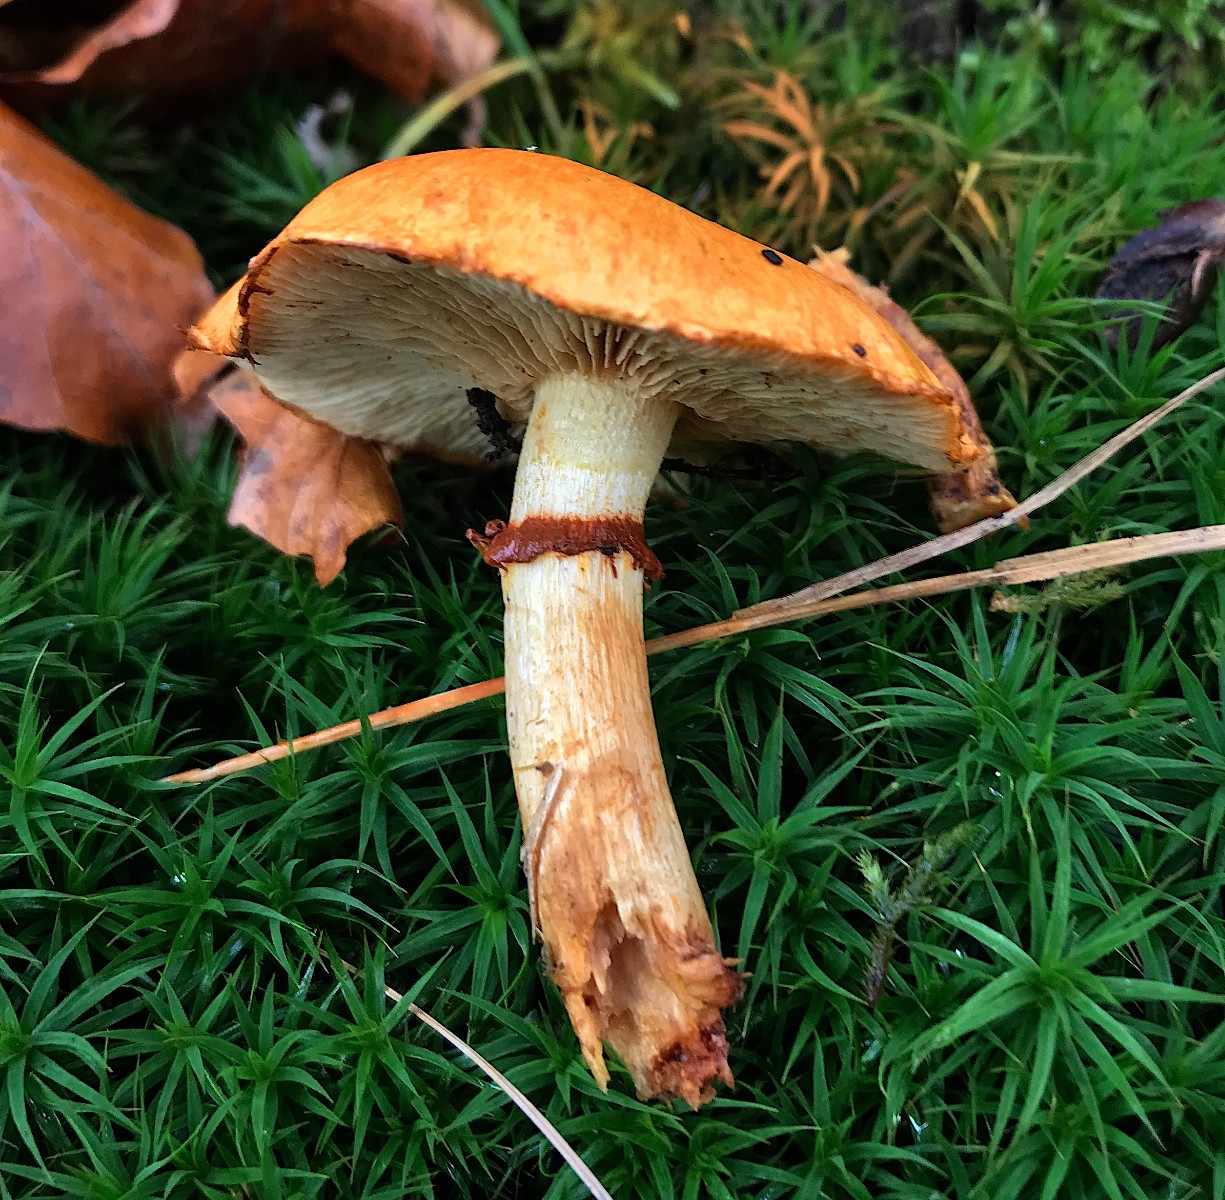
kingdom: Fungi
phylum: Basidiomycota
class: Agaricomycetes
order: Agaricales
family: Hymenogastraceae
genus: Gymnopilus
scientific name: Gymnopilus spectabilis
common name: fibret flammehat
